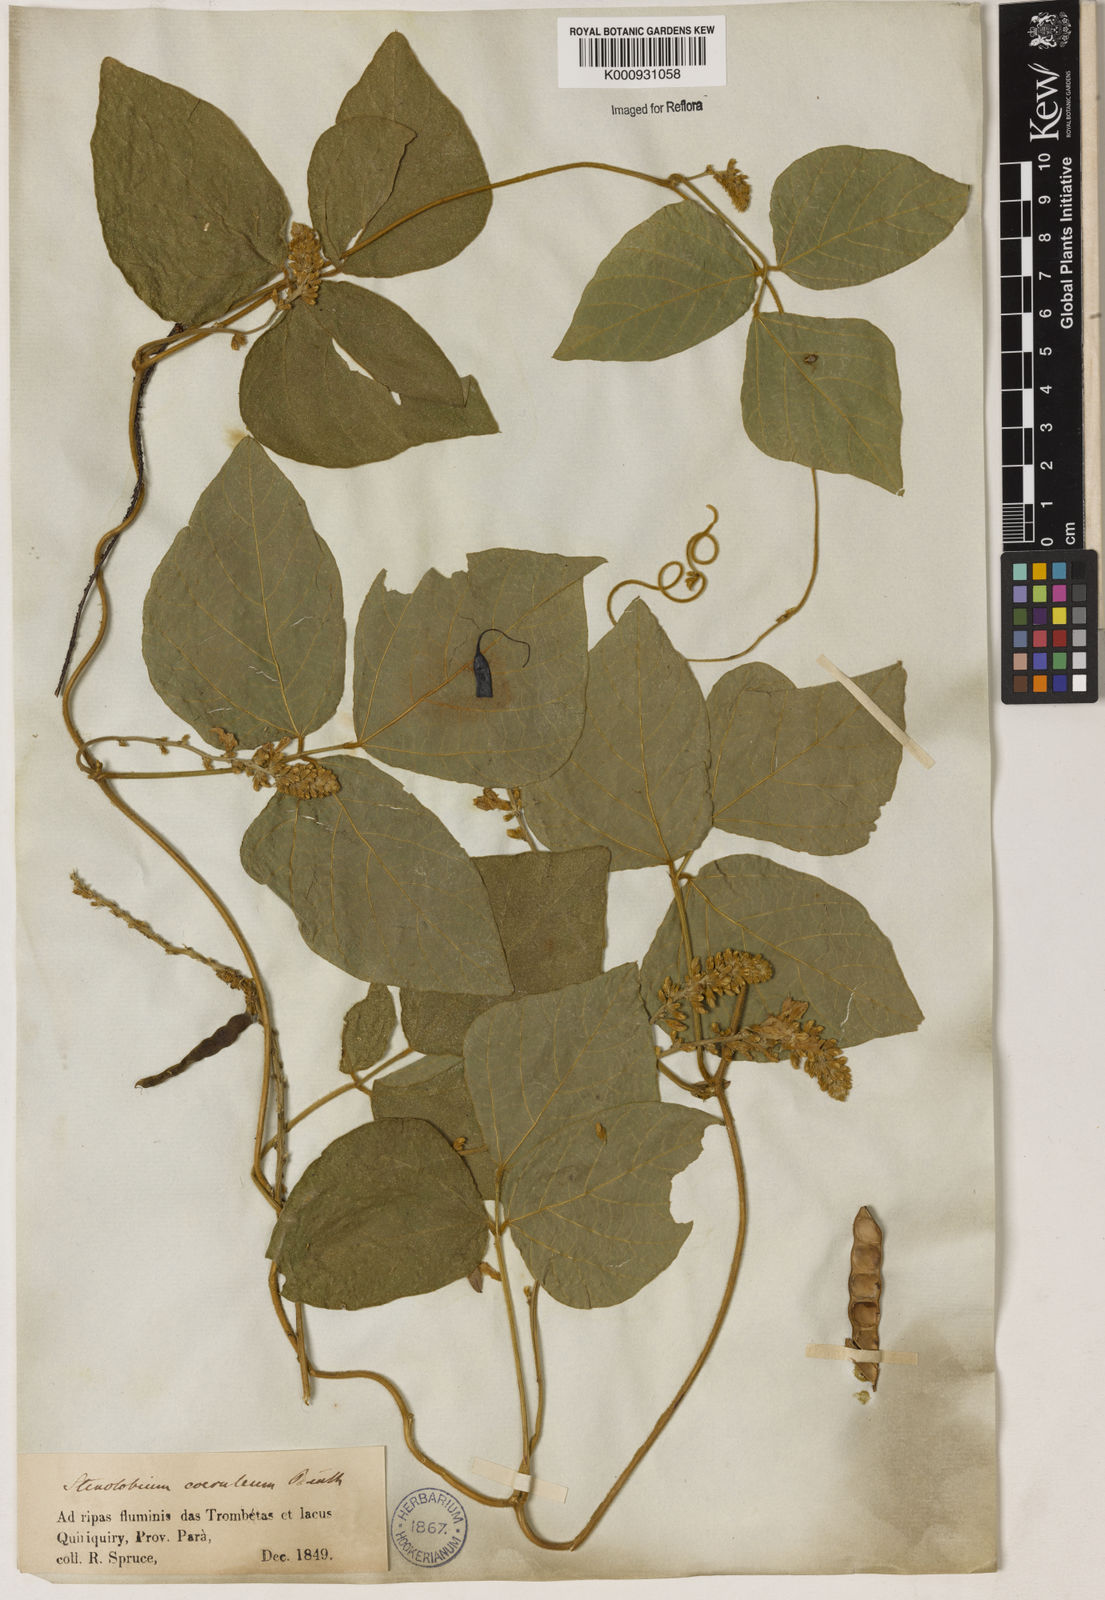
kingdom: Plantae
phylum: Tracheophyta
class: Magnoliopsida
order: Fabales
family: Fabaceae
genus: Calopogonium
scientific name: Calopogonium caeruleum
